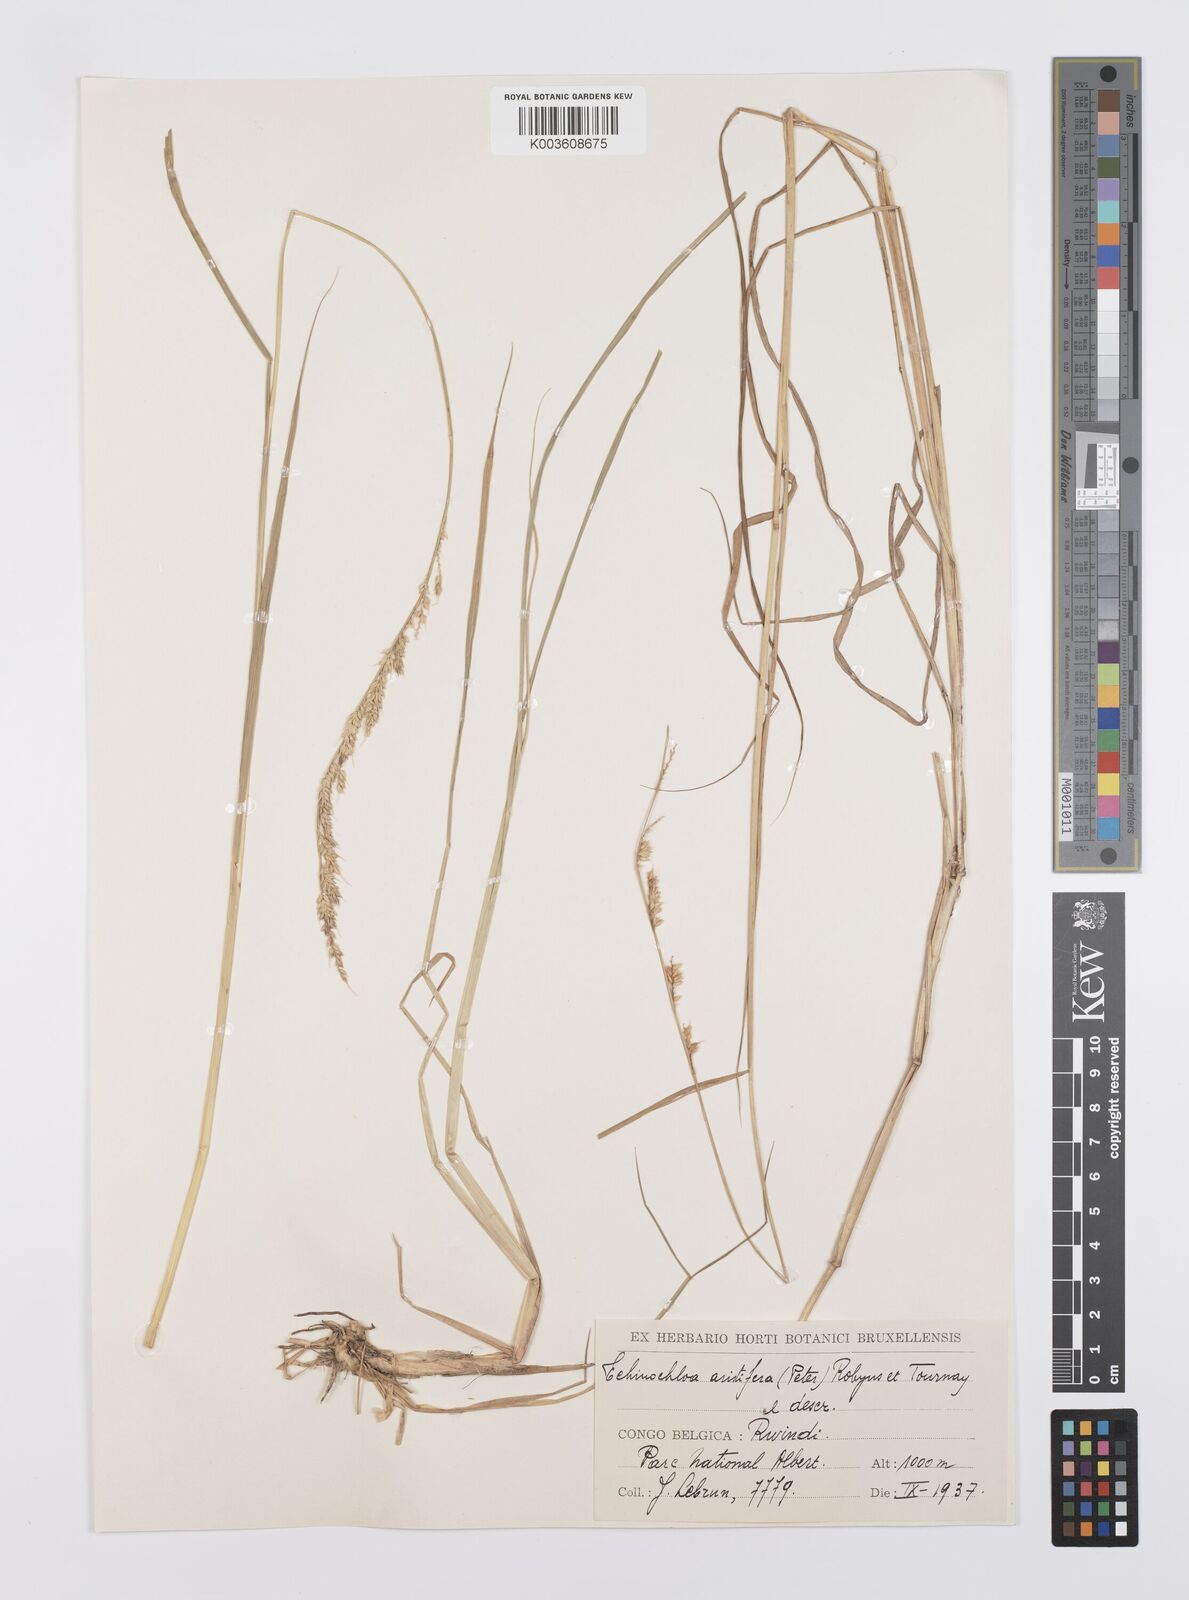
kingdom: Plantae
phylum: Tracheophyta
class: Liliopsida
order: Poales
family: Poaceae
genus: Echinochloa
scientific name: Echinochloa haploclada
